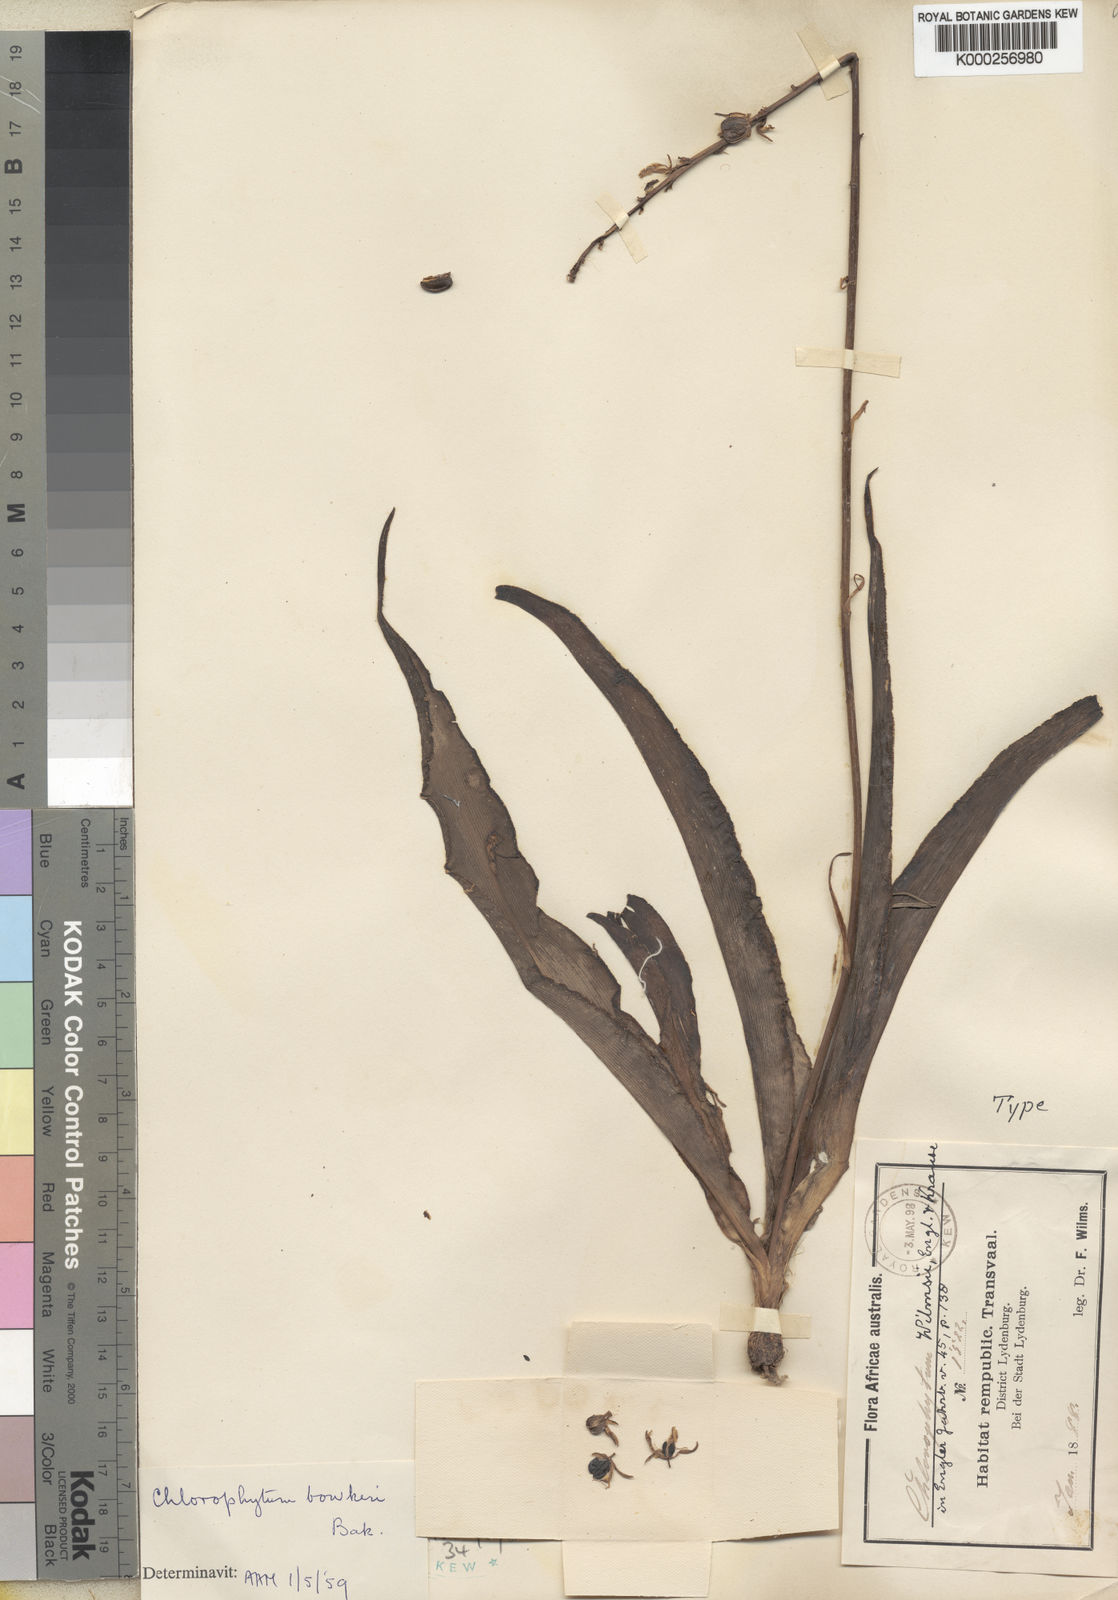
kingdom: Plantae
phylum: Tracheophyta
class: Liliopsida
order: Asparagales
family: Asparagaceae
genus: Chlorophytum
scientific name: Chlorophytum bowkeri
